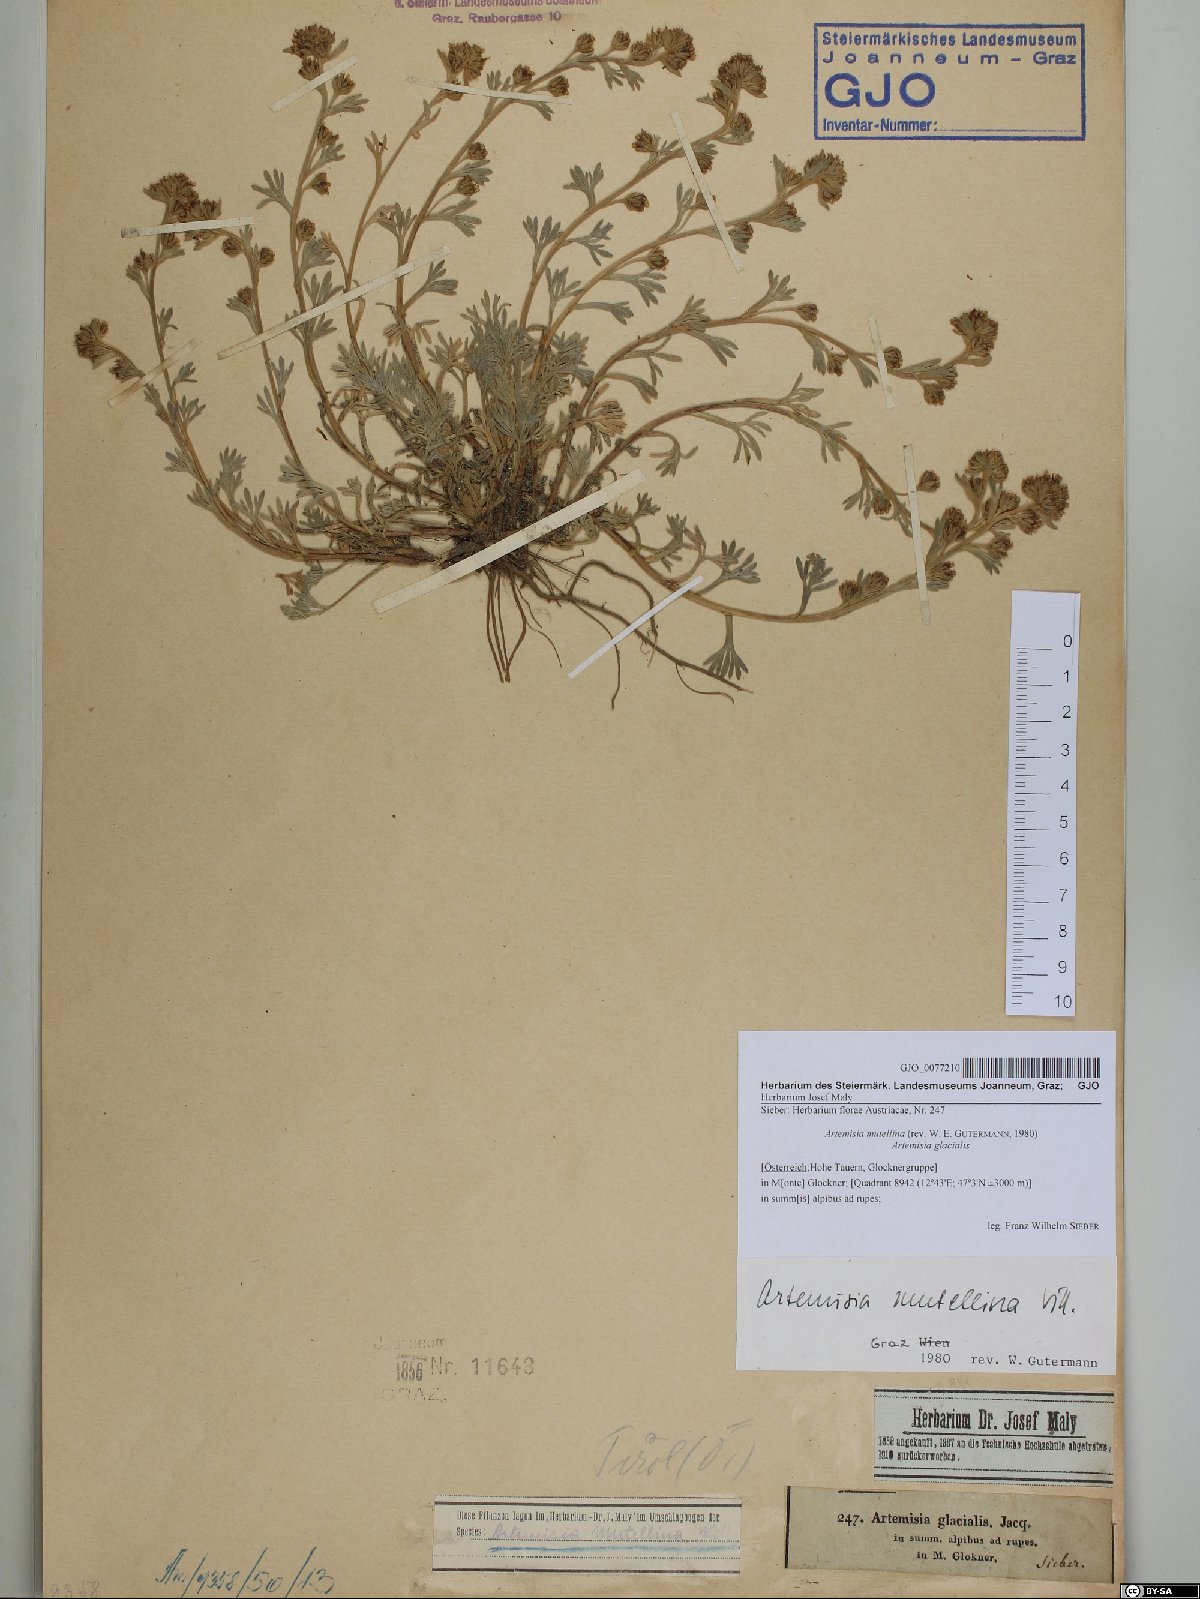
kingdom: Plantae
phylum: Tracheophyta
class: Magnoliopsida
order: Asterales
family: Asteraceae
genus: Artemisia
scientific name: Artemisia mutellina
